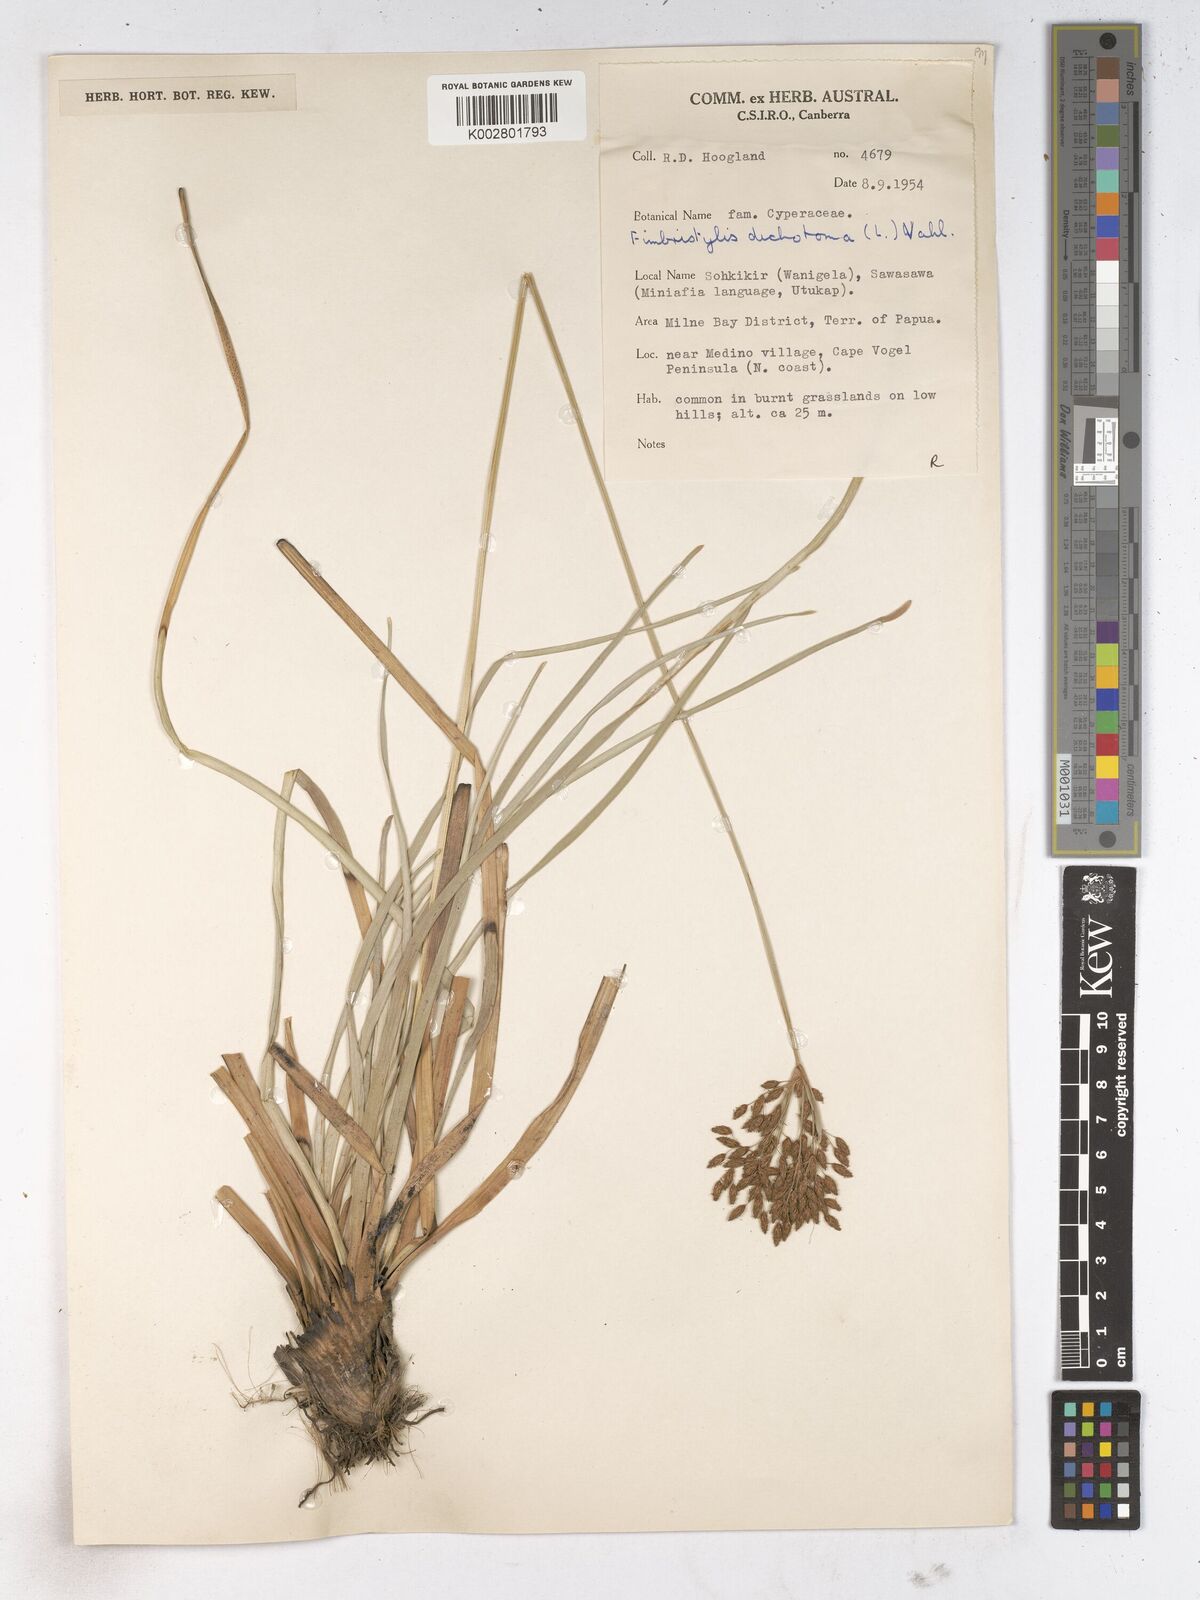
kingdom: Plantae
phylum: Tracheophyta
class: Liliopsida
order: Poales
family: Cyperaceae
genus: Fimbristylis
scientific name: Fimbristylis dichotoma
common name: Forked fimbry
